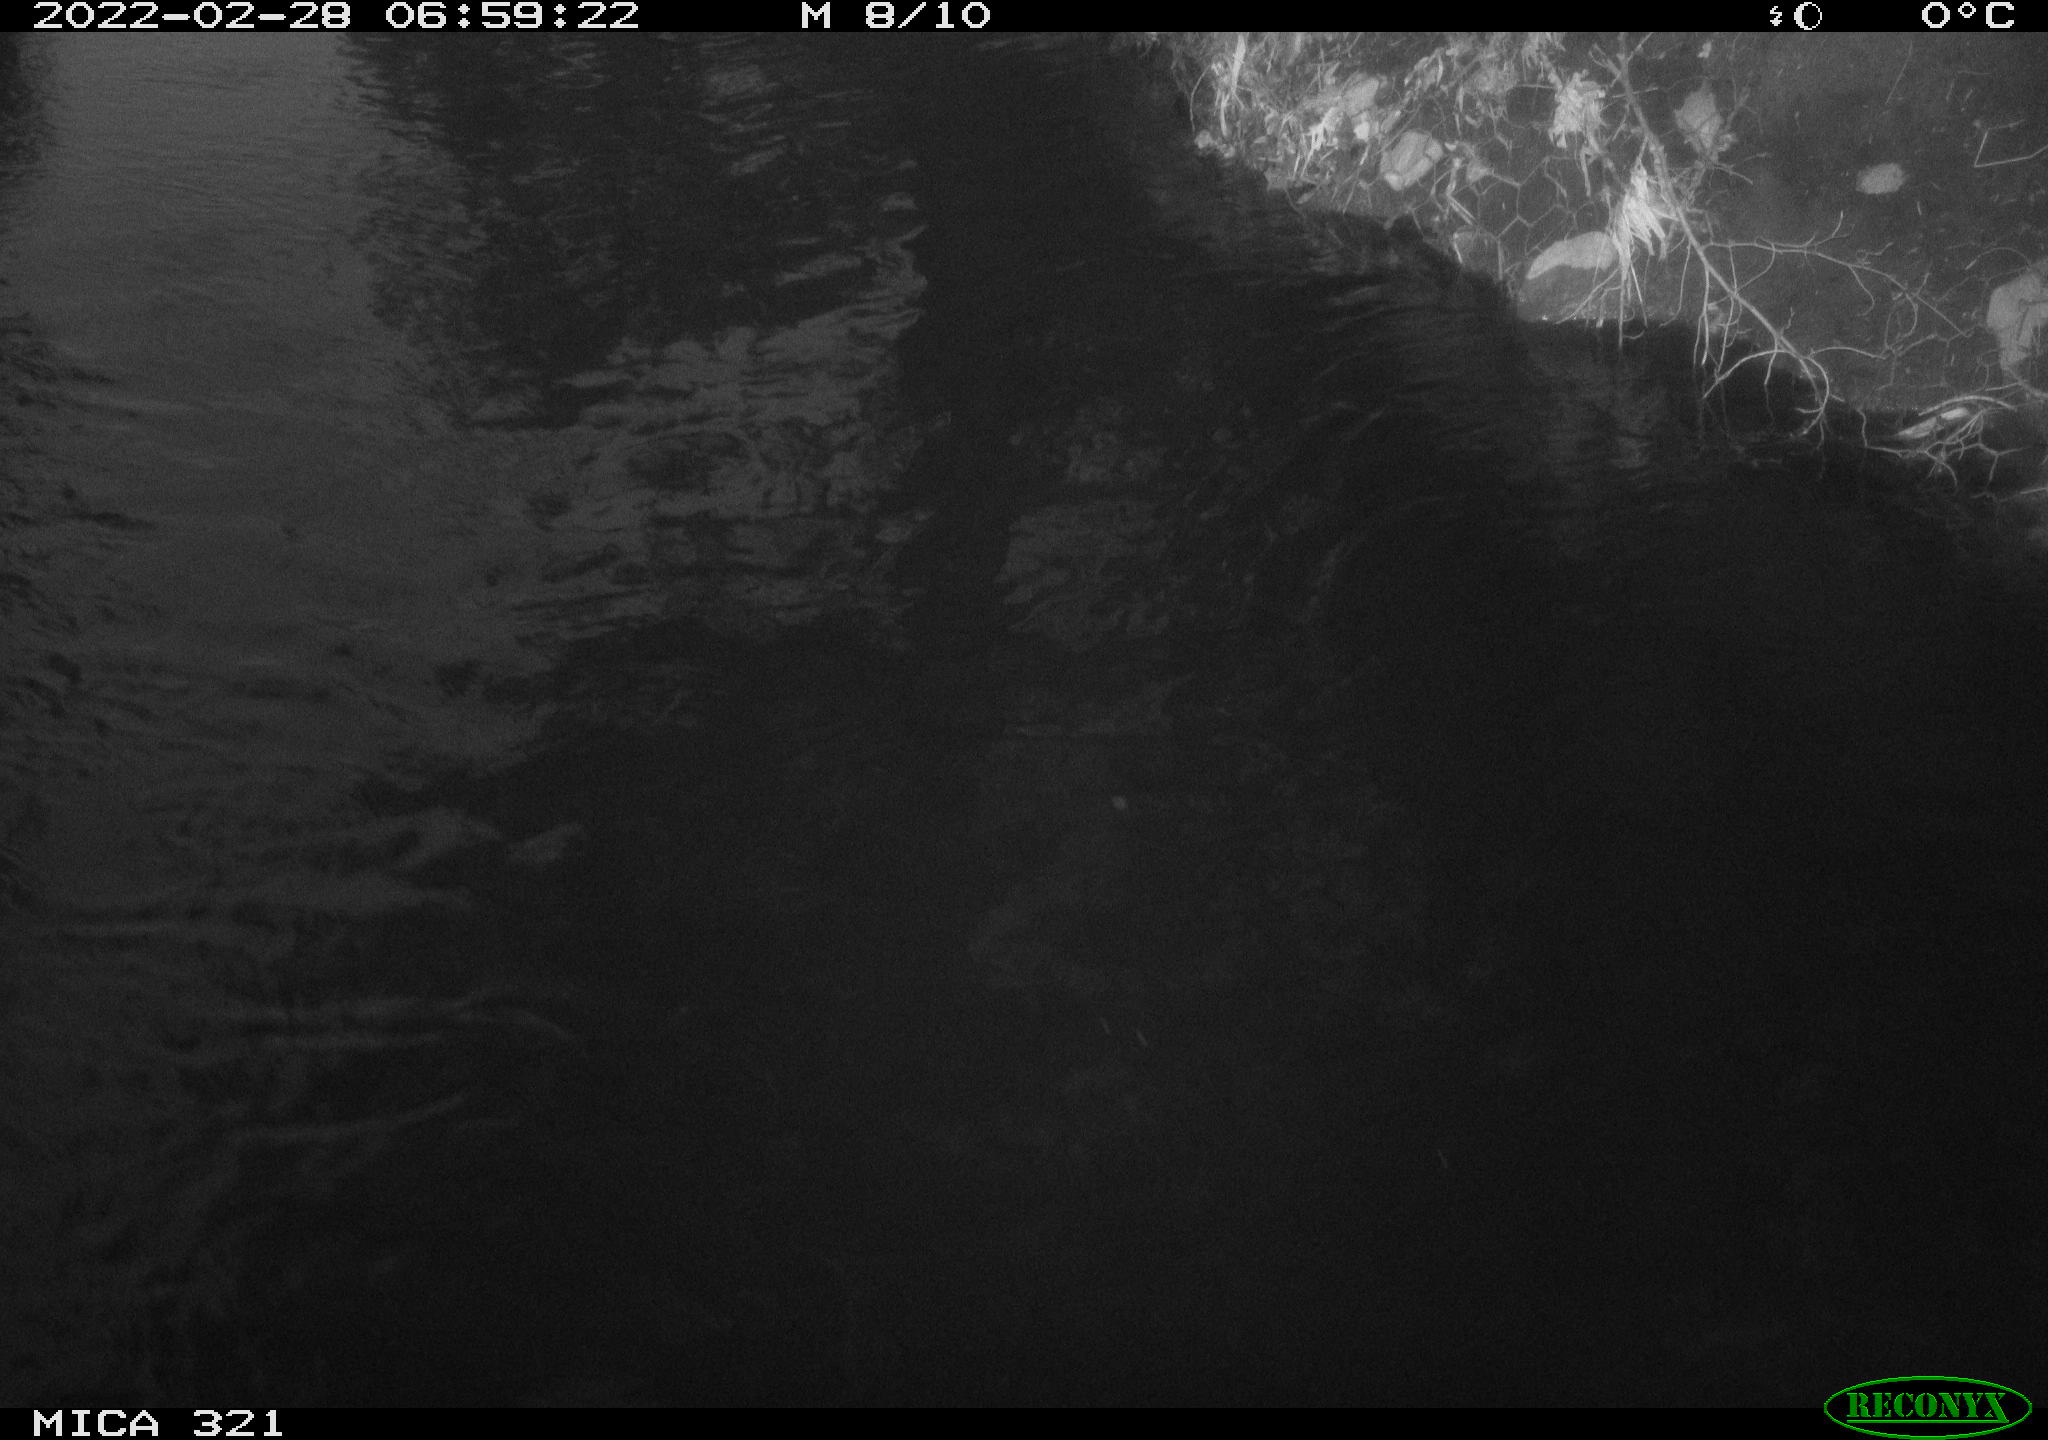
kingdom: Animalia
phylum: Chordata
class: Aves
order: Anseriformes
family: Anatidae
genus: Anas
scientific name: Anas platyrhynchos
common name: Mallard
